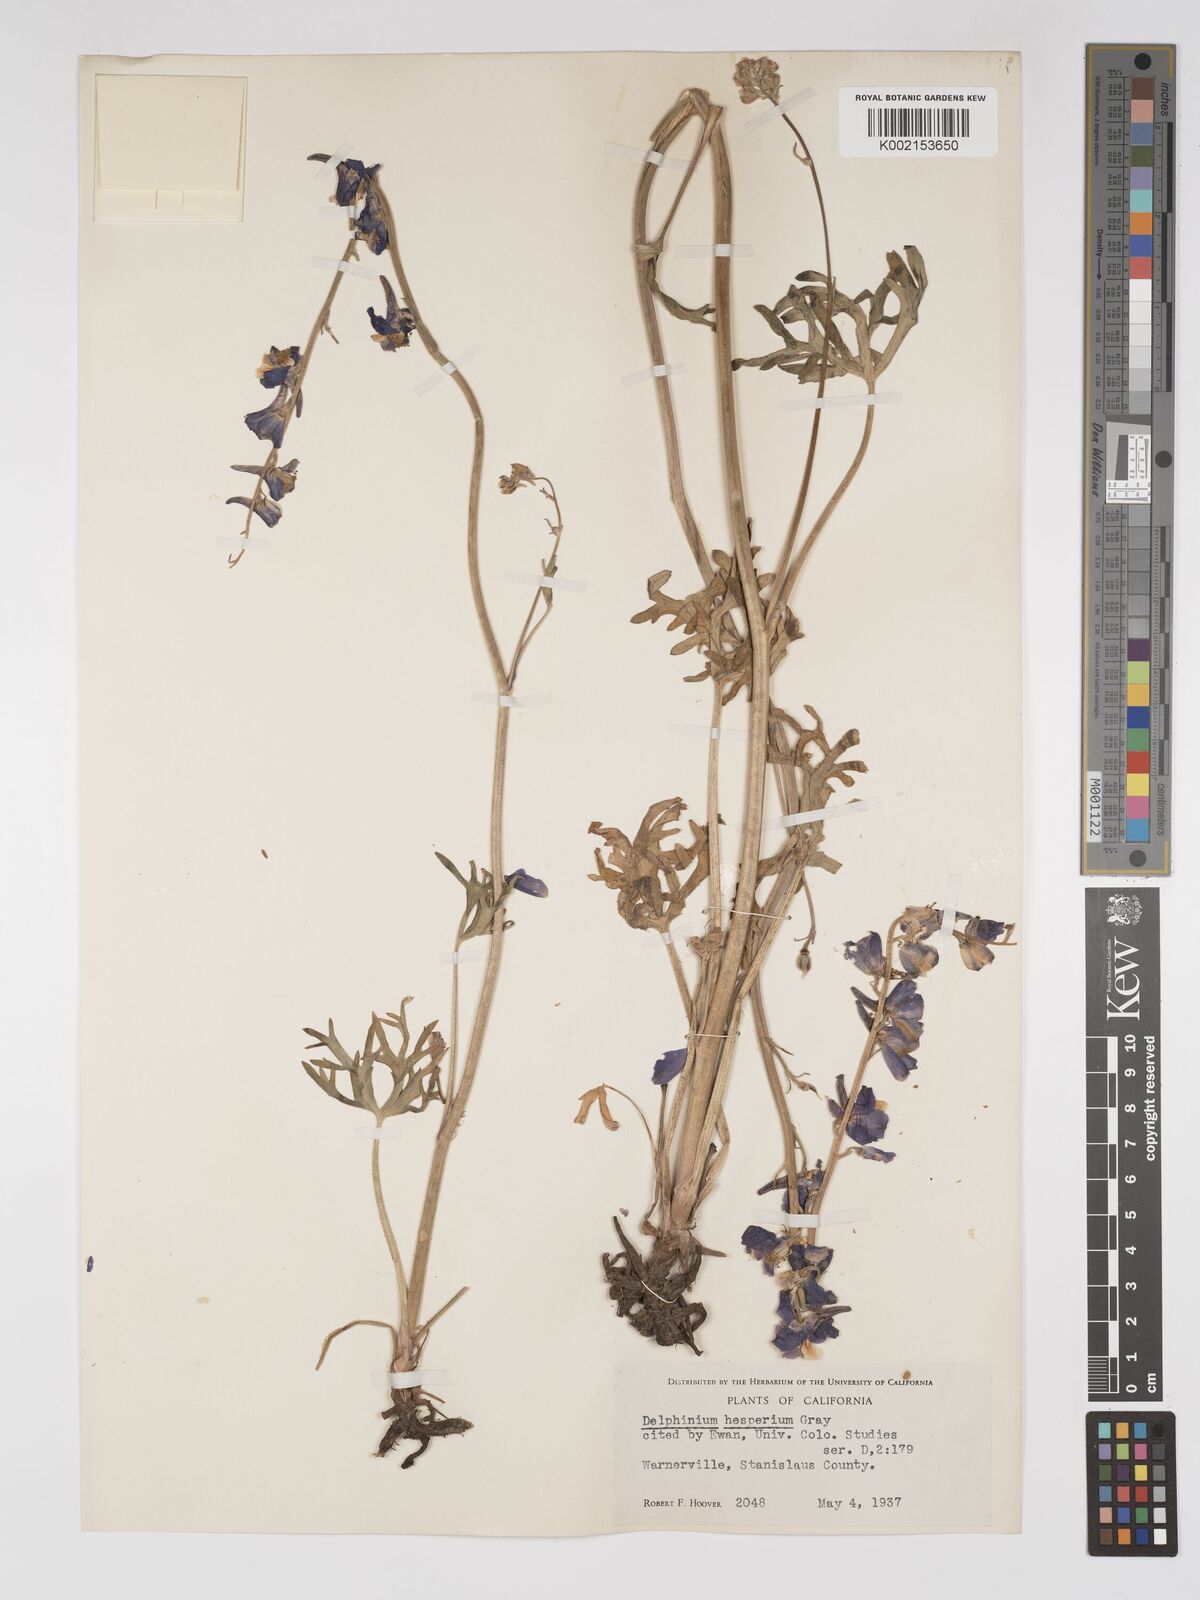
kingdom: Plantae
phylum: Tracheophyta
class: Magnoliopsida
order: Ranunculales
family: Ranunculaceae
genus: Delphinium
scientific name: Delphinium hesperium
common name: Western larkspur
